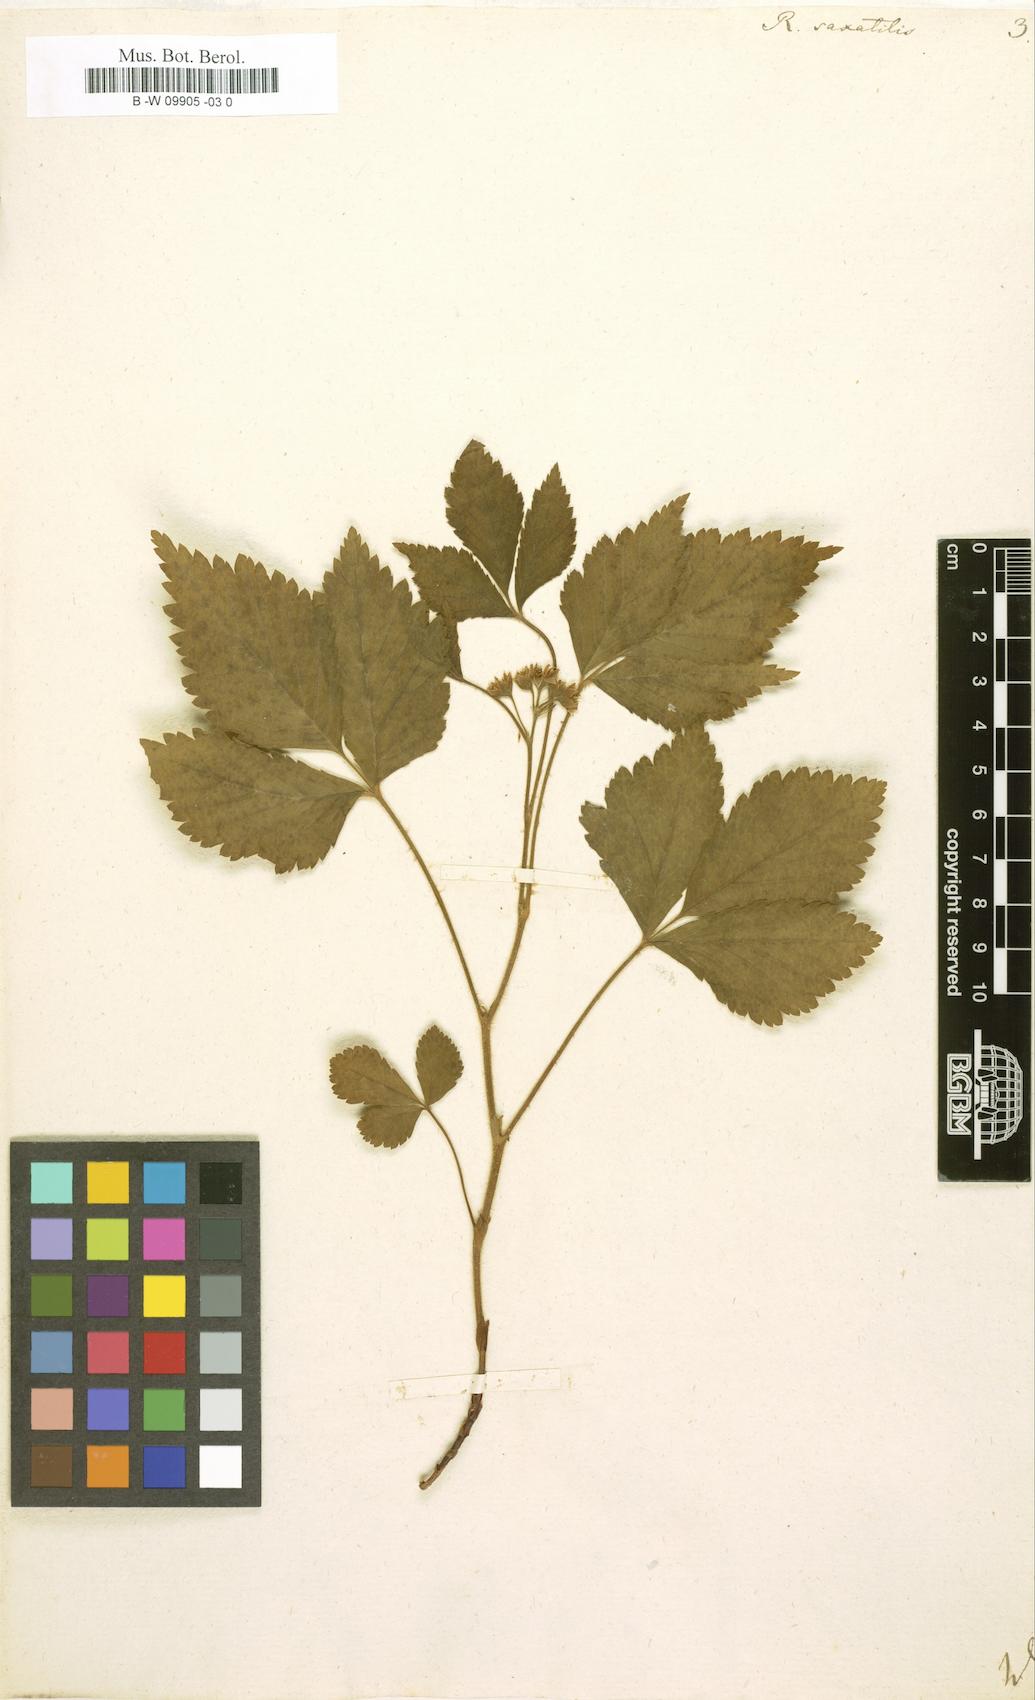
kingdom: Plantae
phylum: Tracheophyta
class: Magnoliopsida
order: Rosales
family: Rosaceae
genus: Rubus
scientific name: Rubus saxatilis
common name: Stone bramble
